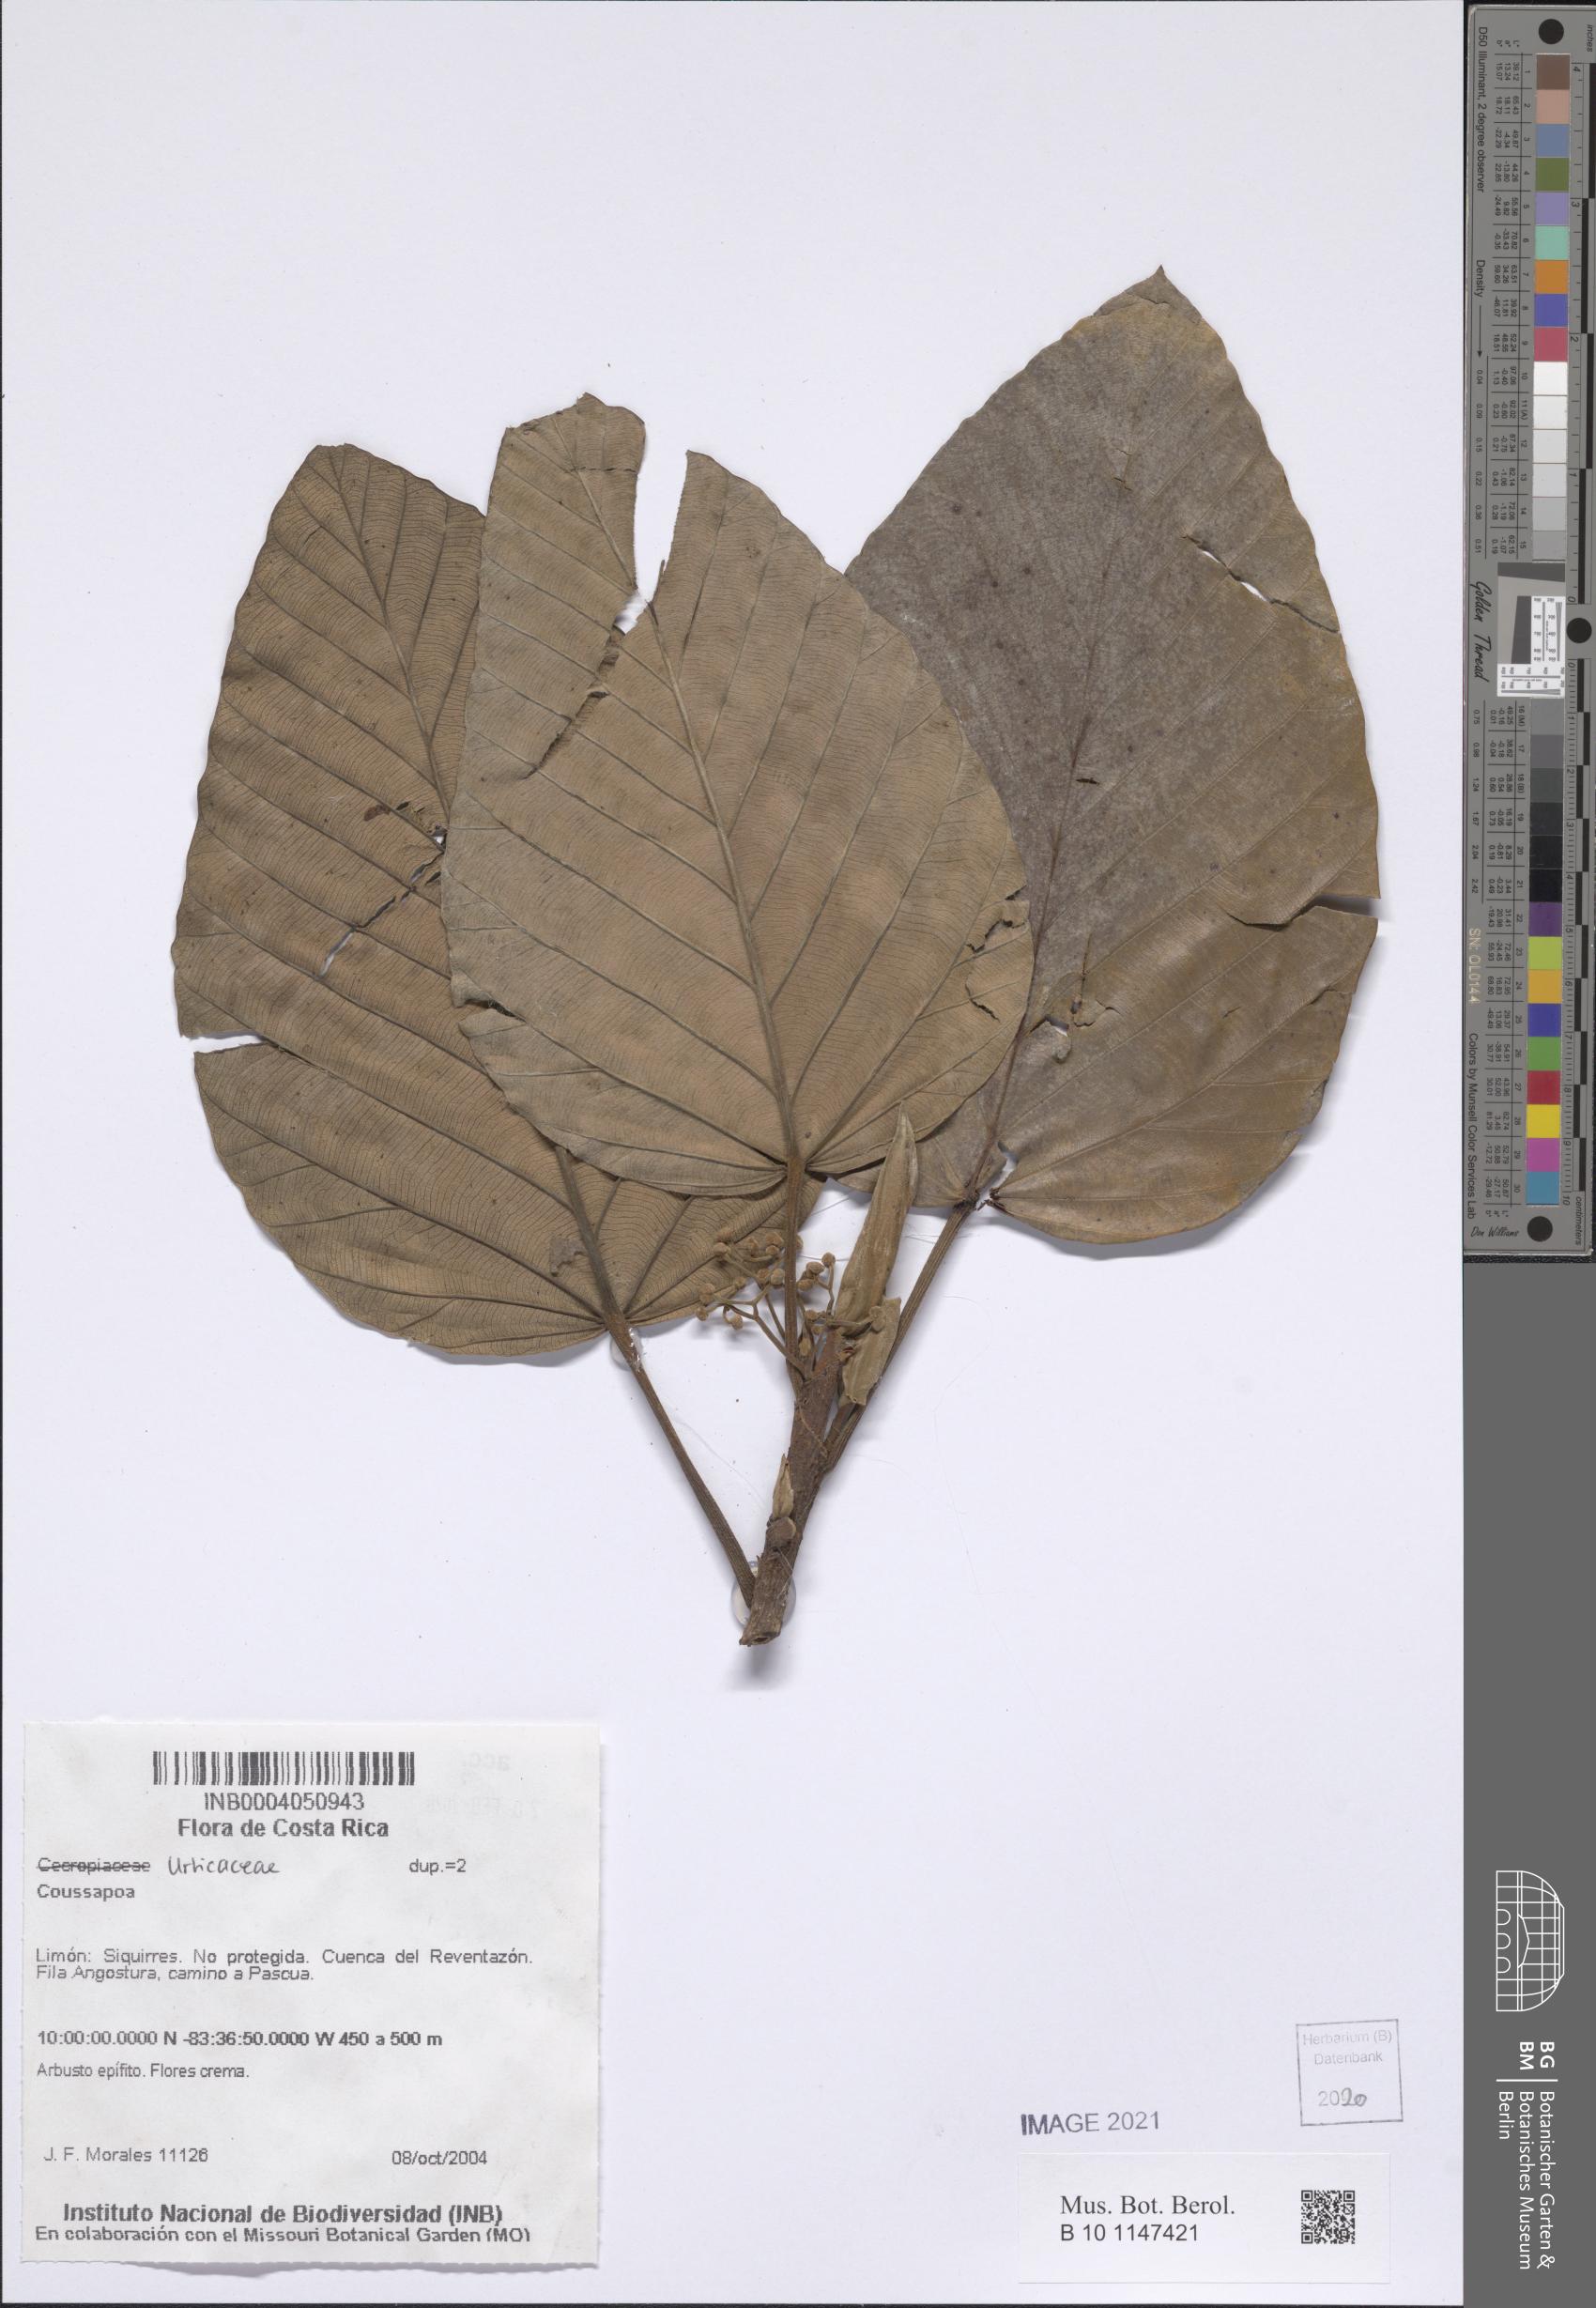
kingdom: Plantae
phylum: Tracheophyta
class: Magnoliopsida
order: Rosales
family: Urticaceae
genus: Coussapoa
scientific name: Coussapoa
